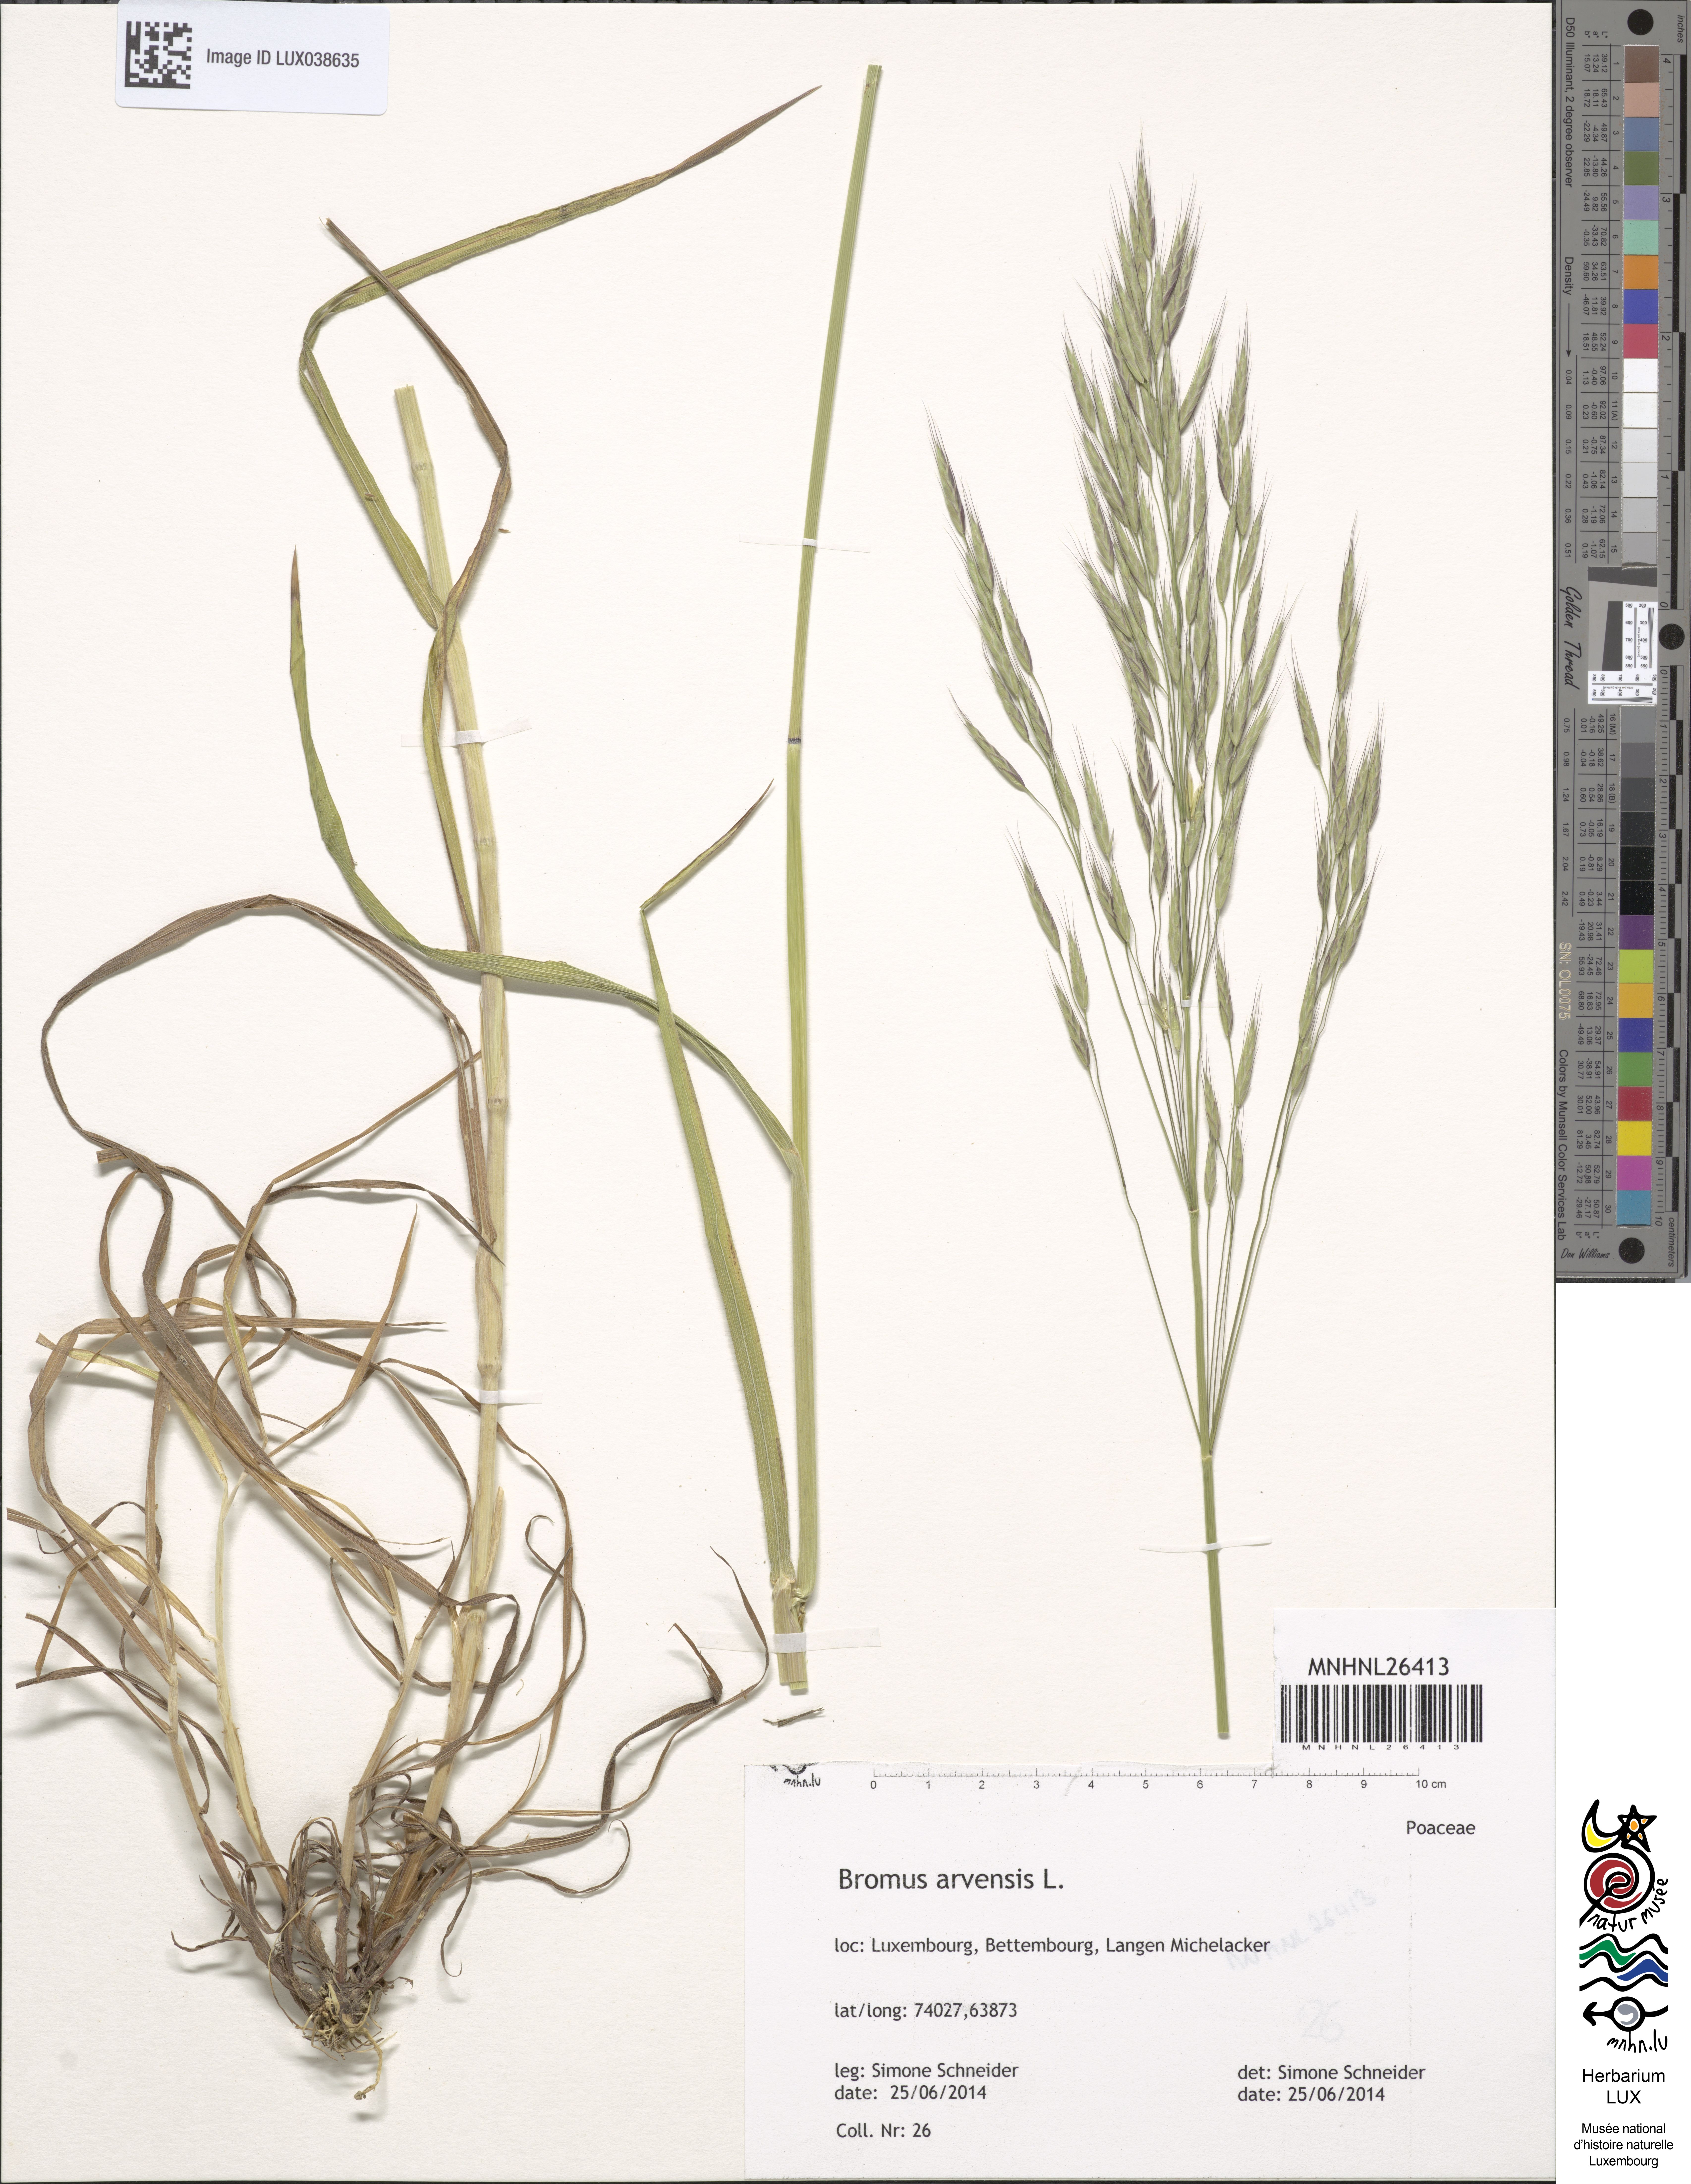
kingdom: Plantae
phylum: Tracheophyta
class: Liliopsida
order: Poales
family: Poaceae
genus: Bromus
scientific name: Bromus arvensis
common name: Field brome
